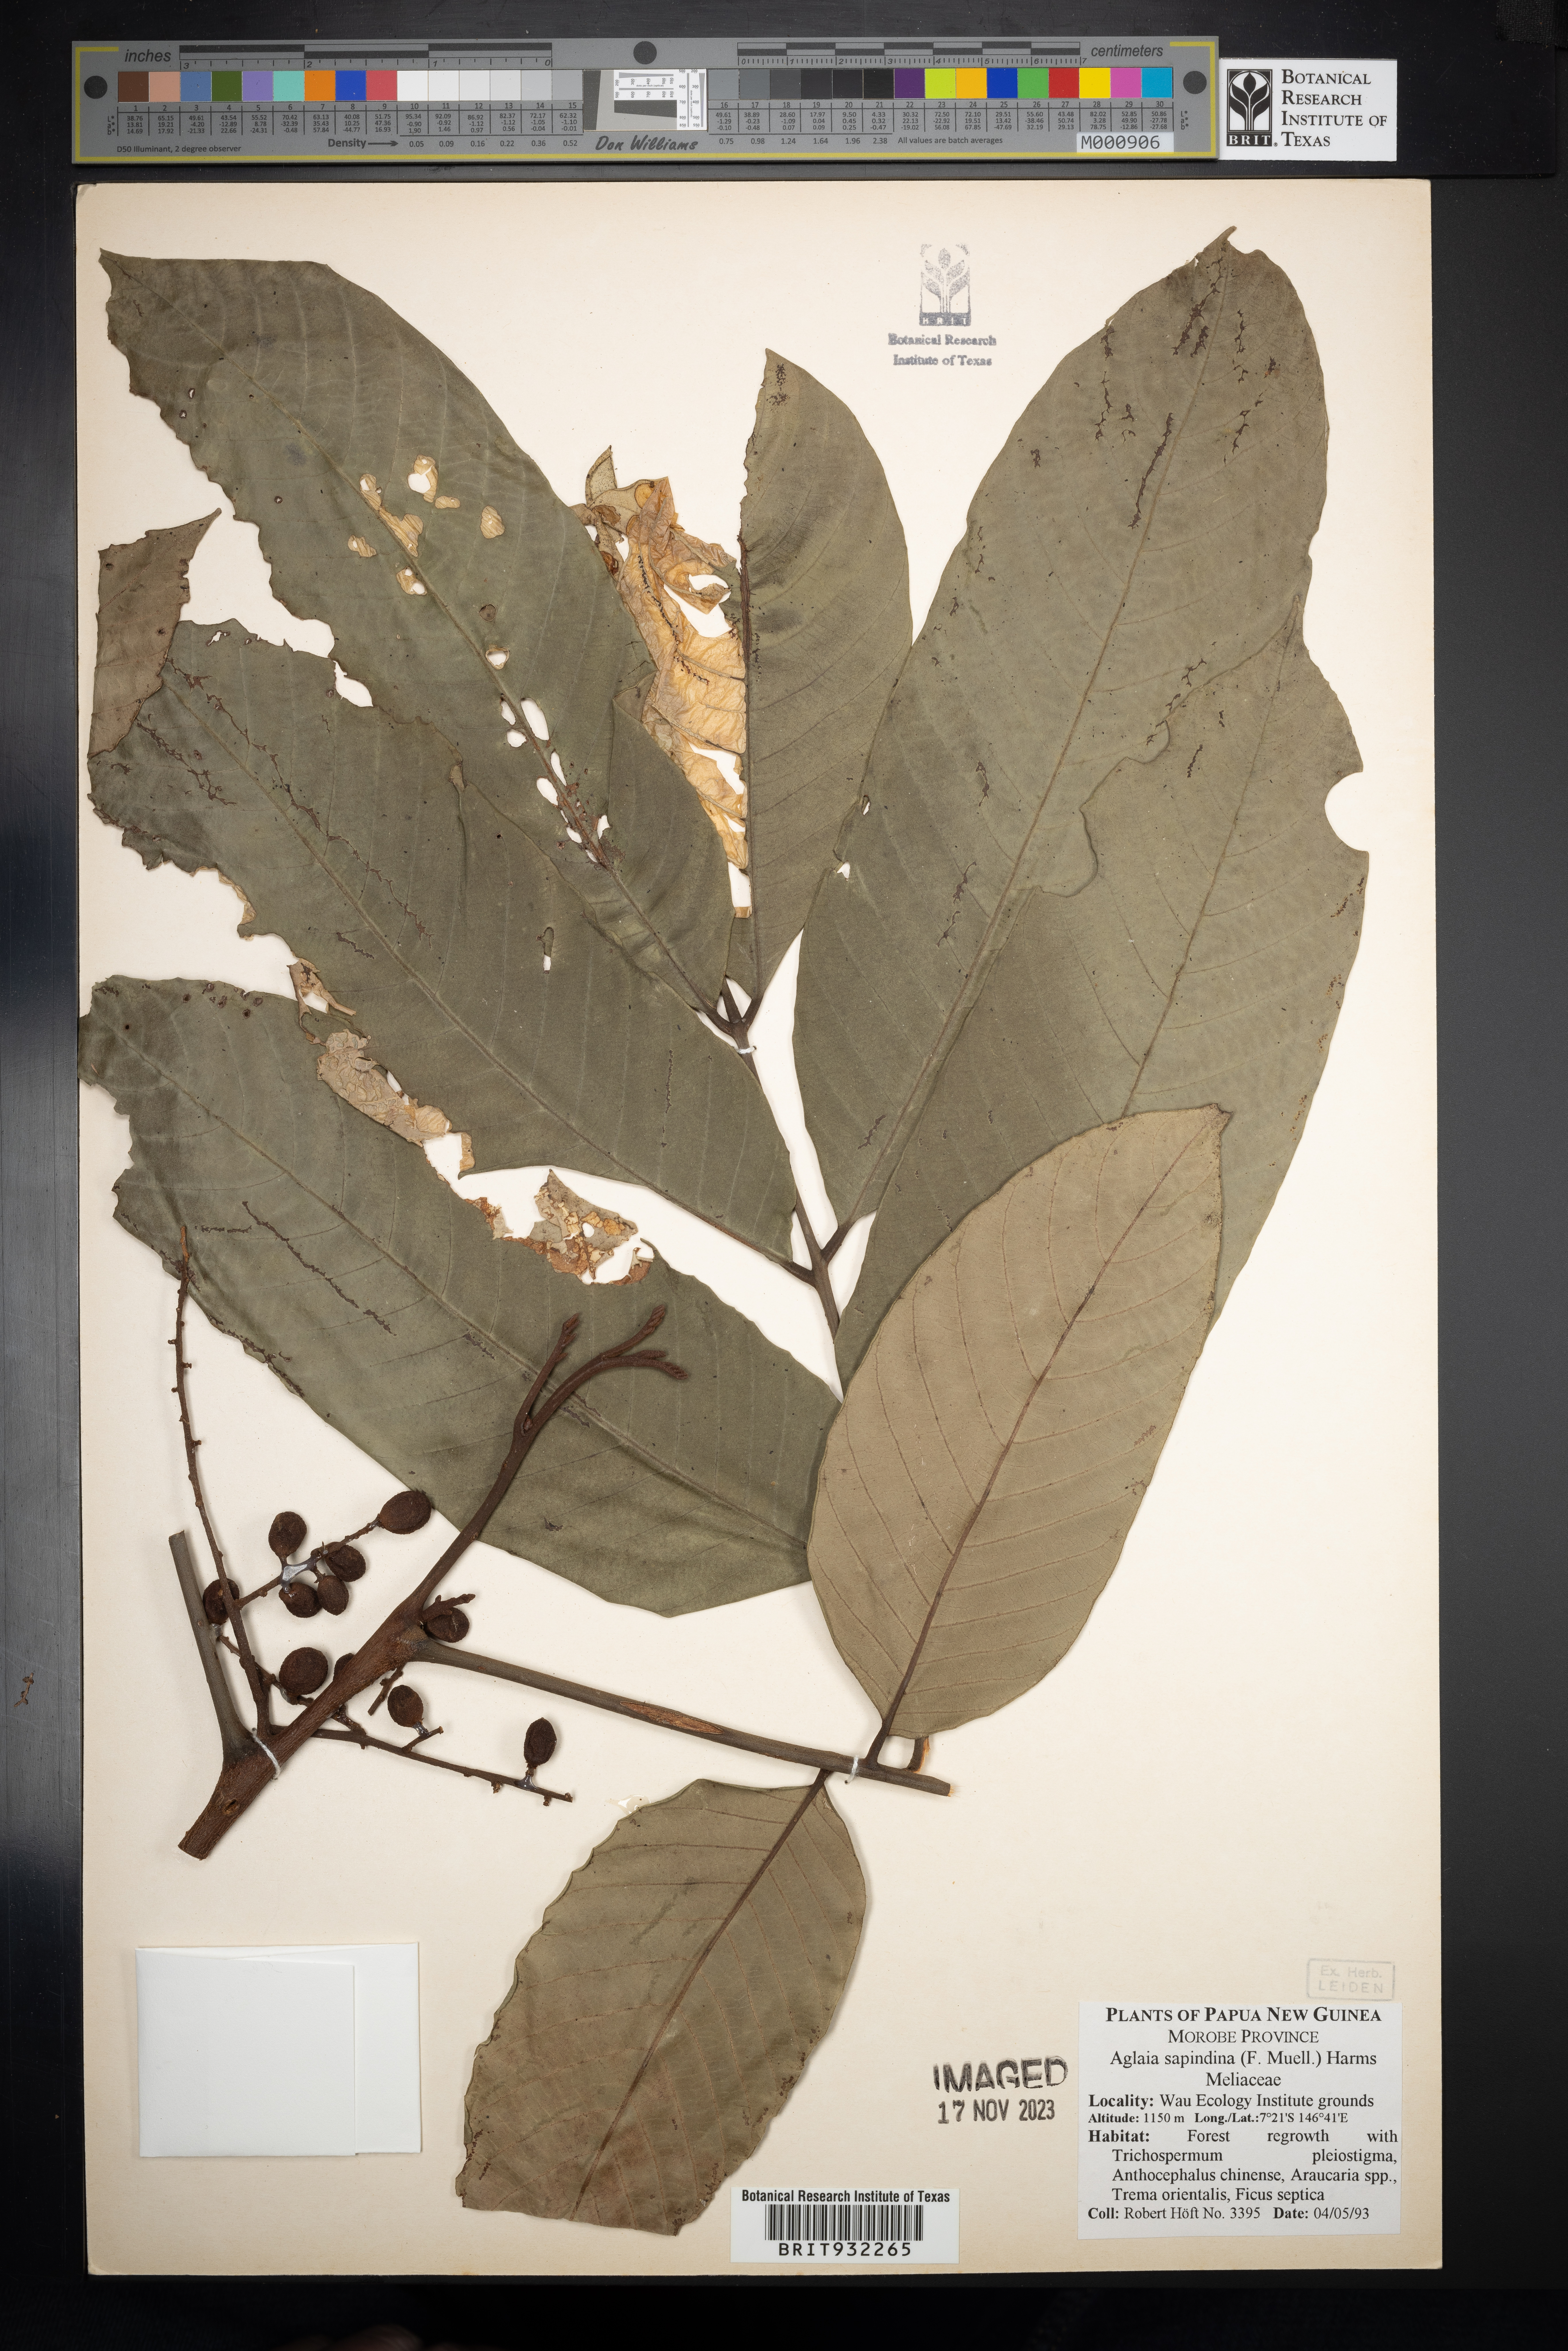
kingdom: Plantae
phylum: Tracheophyta
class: Magnoliopsida
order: Sapindales
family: Meliaceae
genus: Aglaia
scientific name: Aglaia
